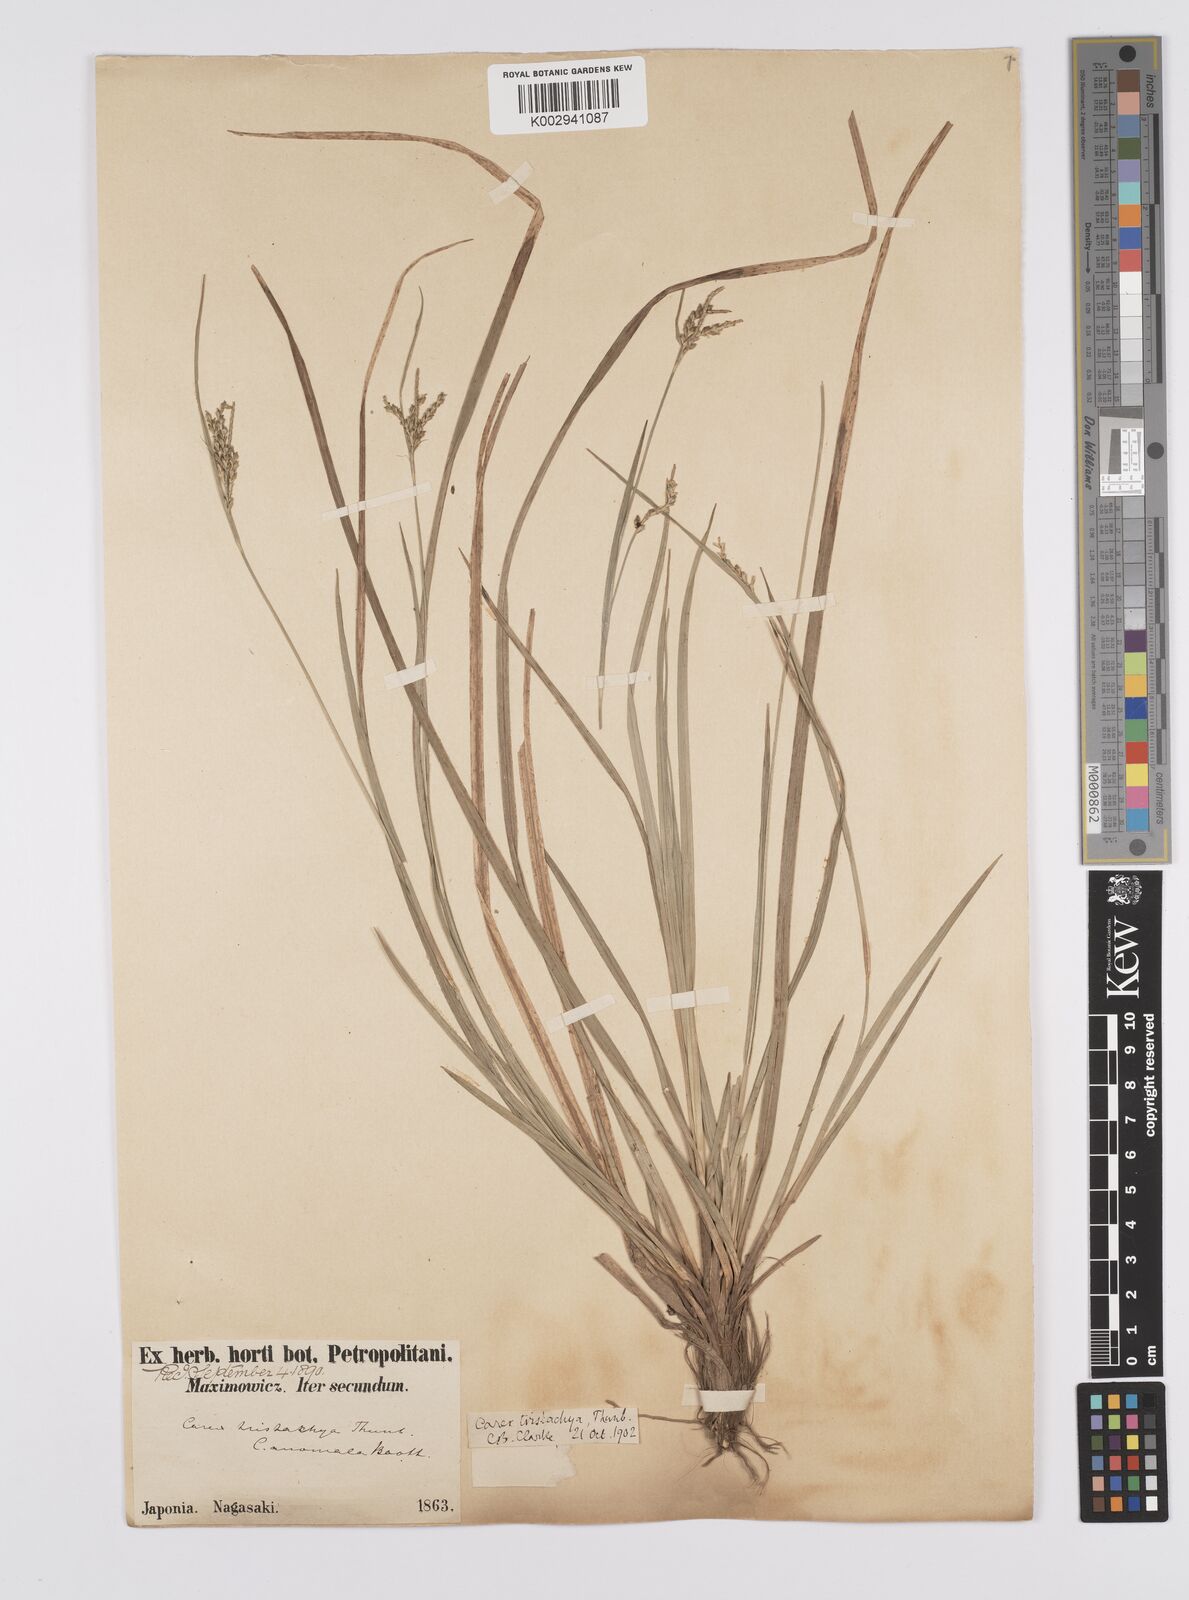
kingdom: Plantae
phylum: Tracheophyta
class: Liliopsida
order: Poales
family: Cyperaceae
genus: Carex
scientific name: Carex tristachya
